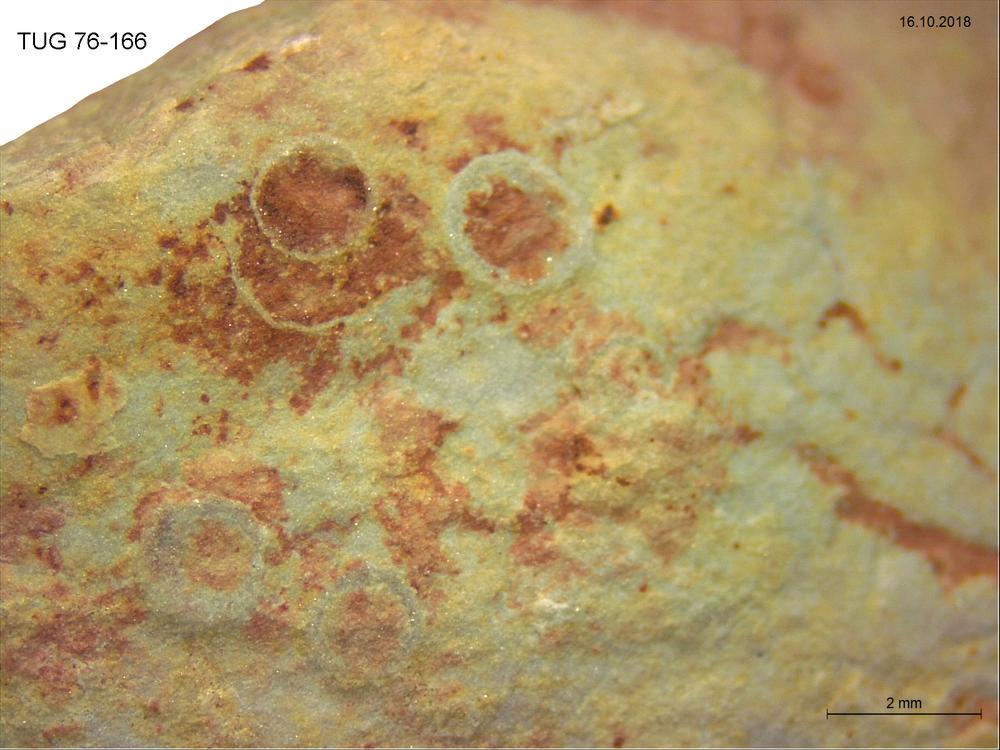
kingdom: Animalia
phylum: Brachiopoda
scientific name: Brachiopoda
